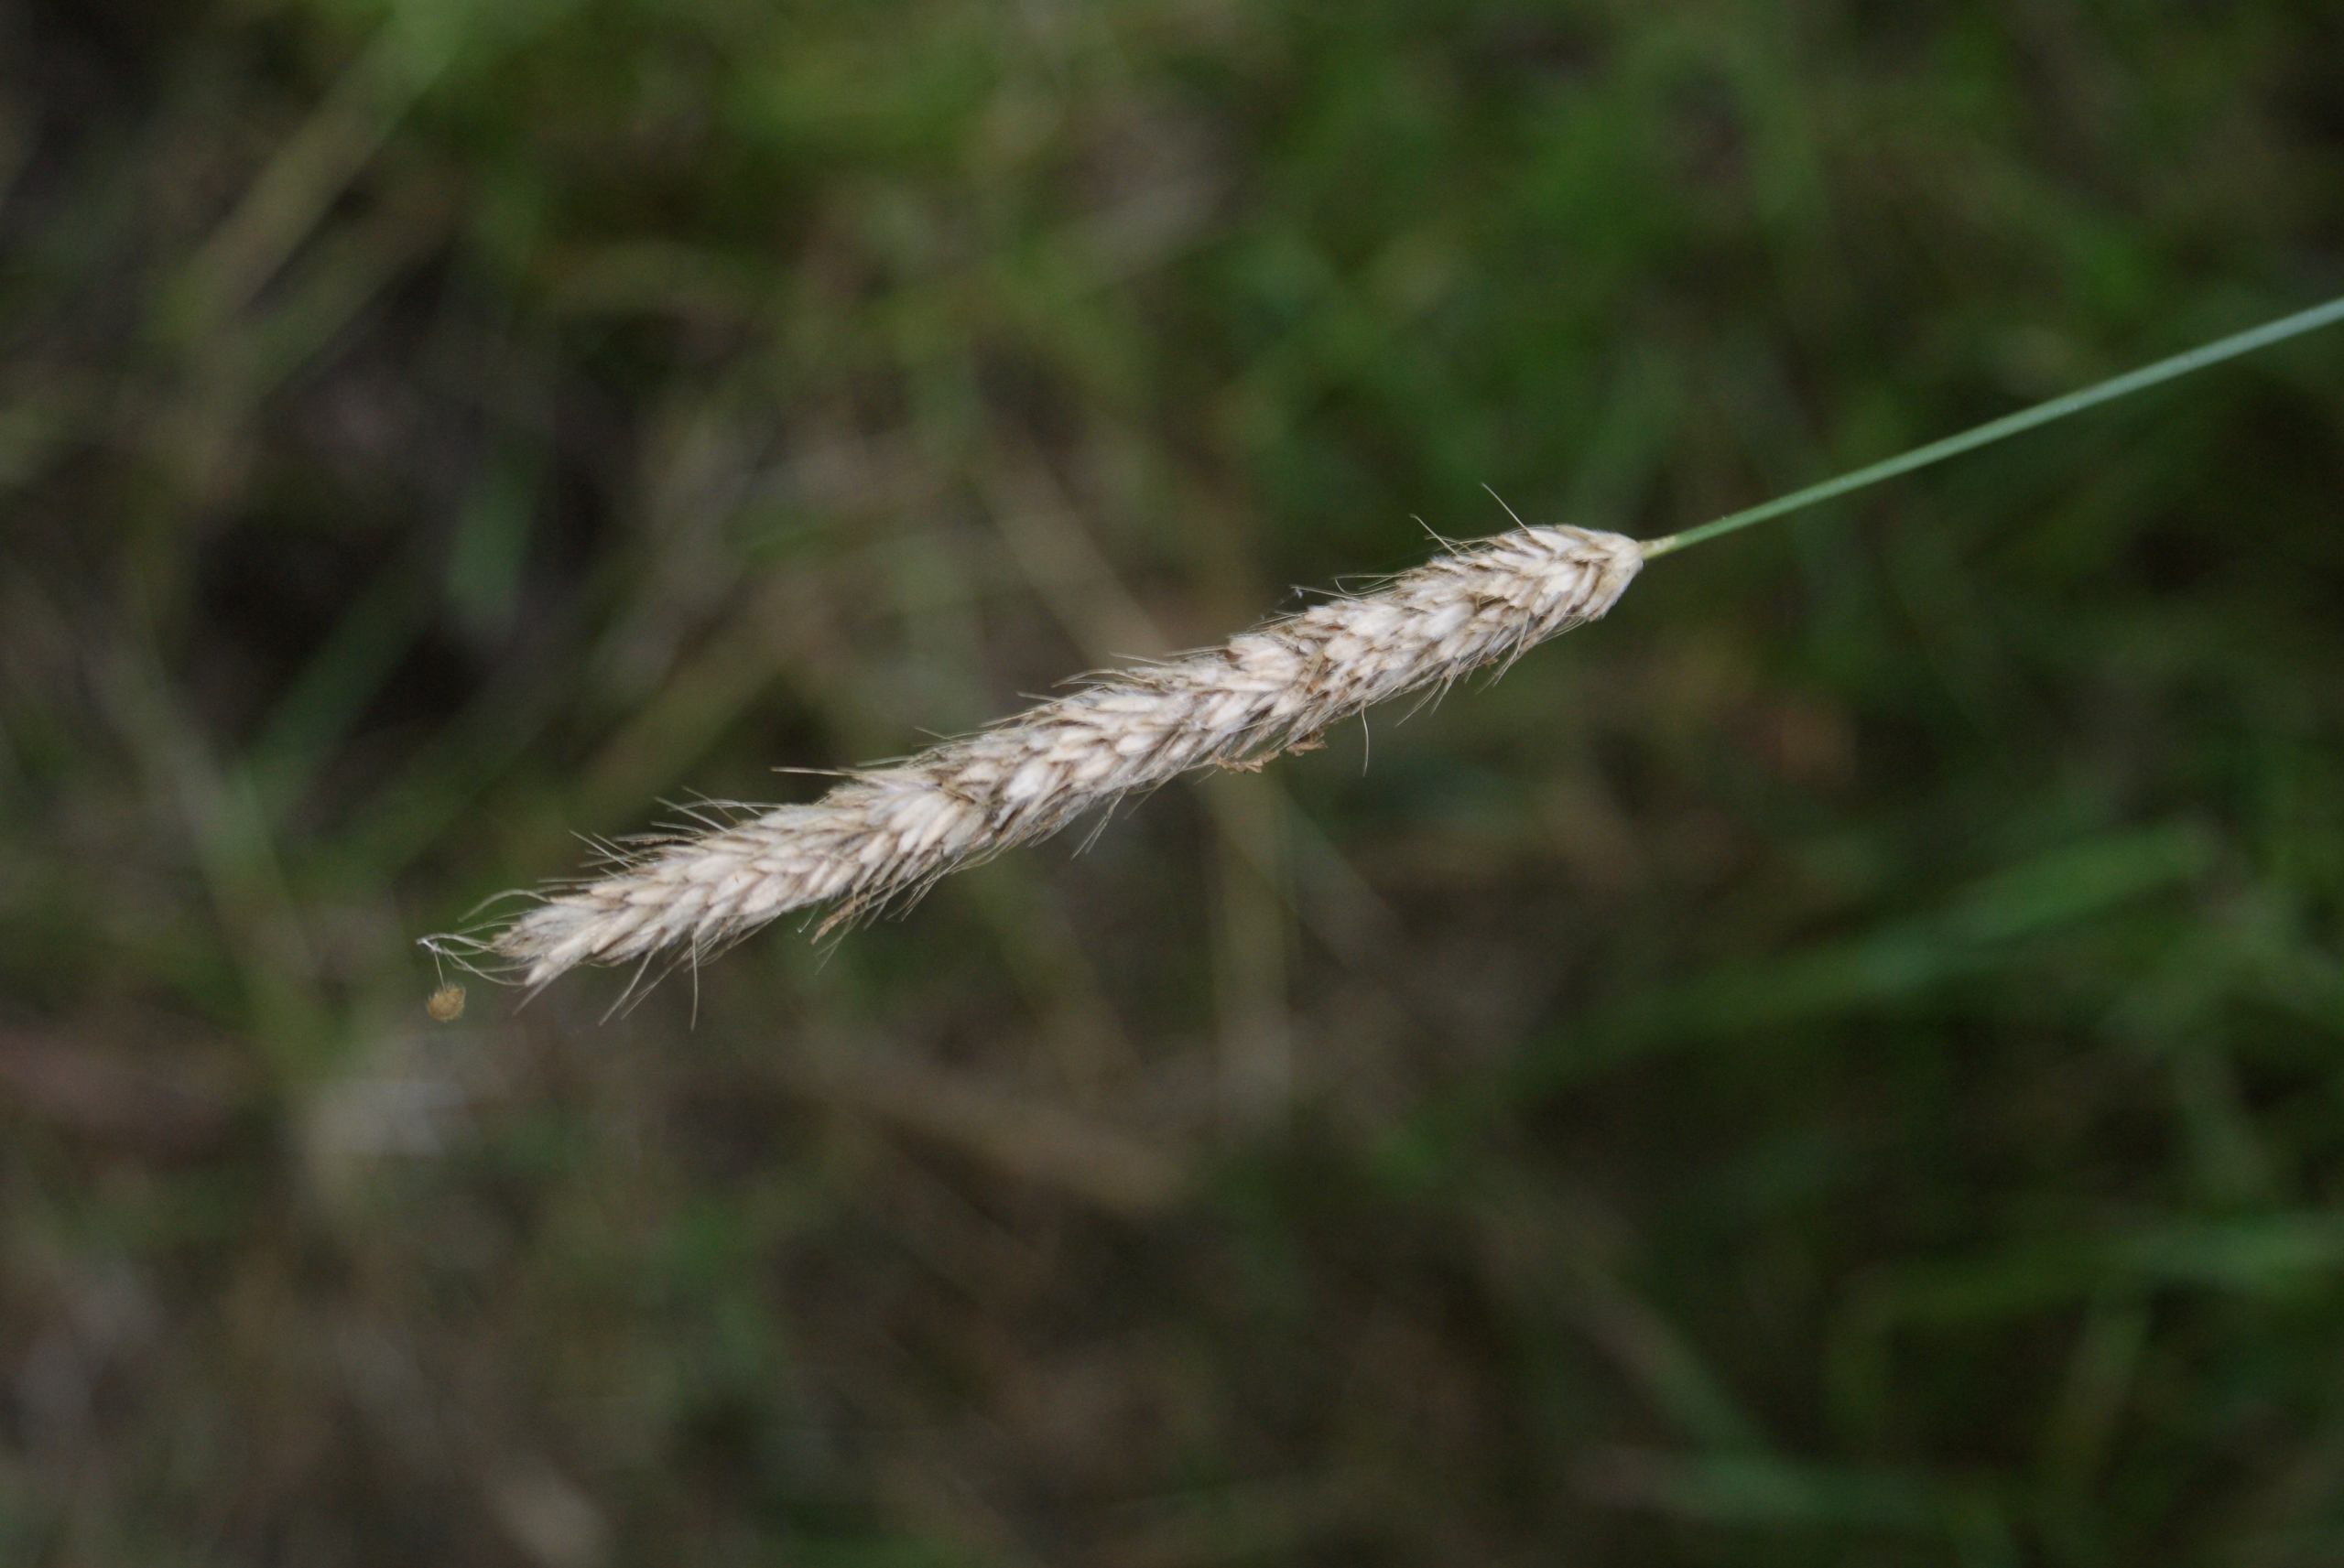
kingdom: Plantae
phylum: Tracheophyta
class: Liliopsida
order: Poales
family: Poaceae
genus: Alopecurus
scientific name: Alopecurus pratensis
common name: Eng-rævehale
